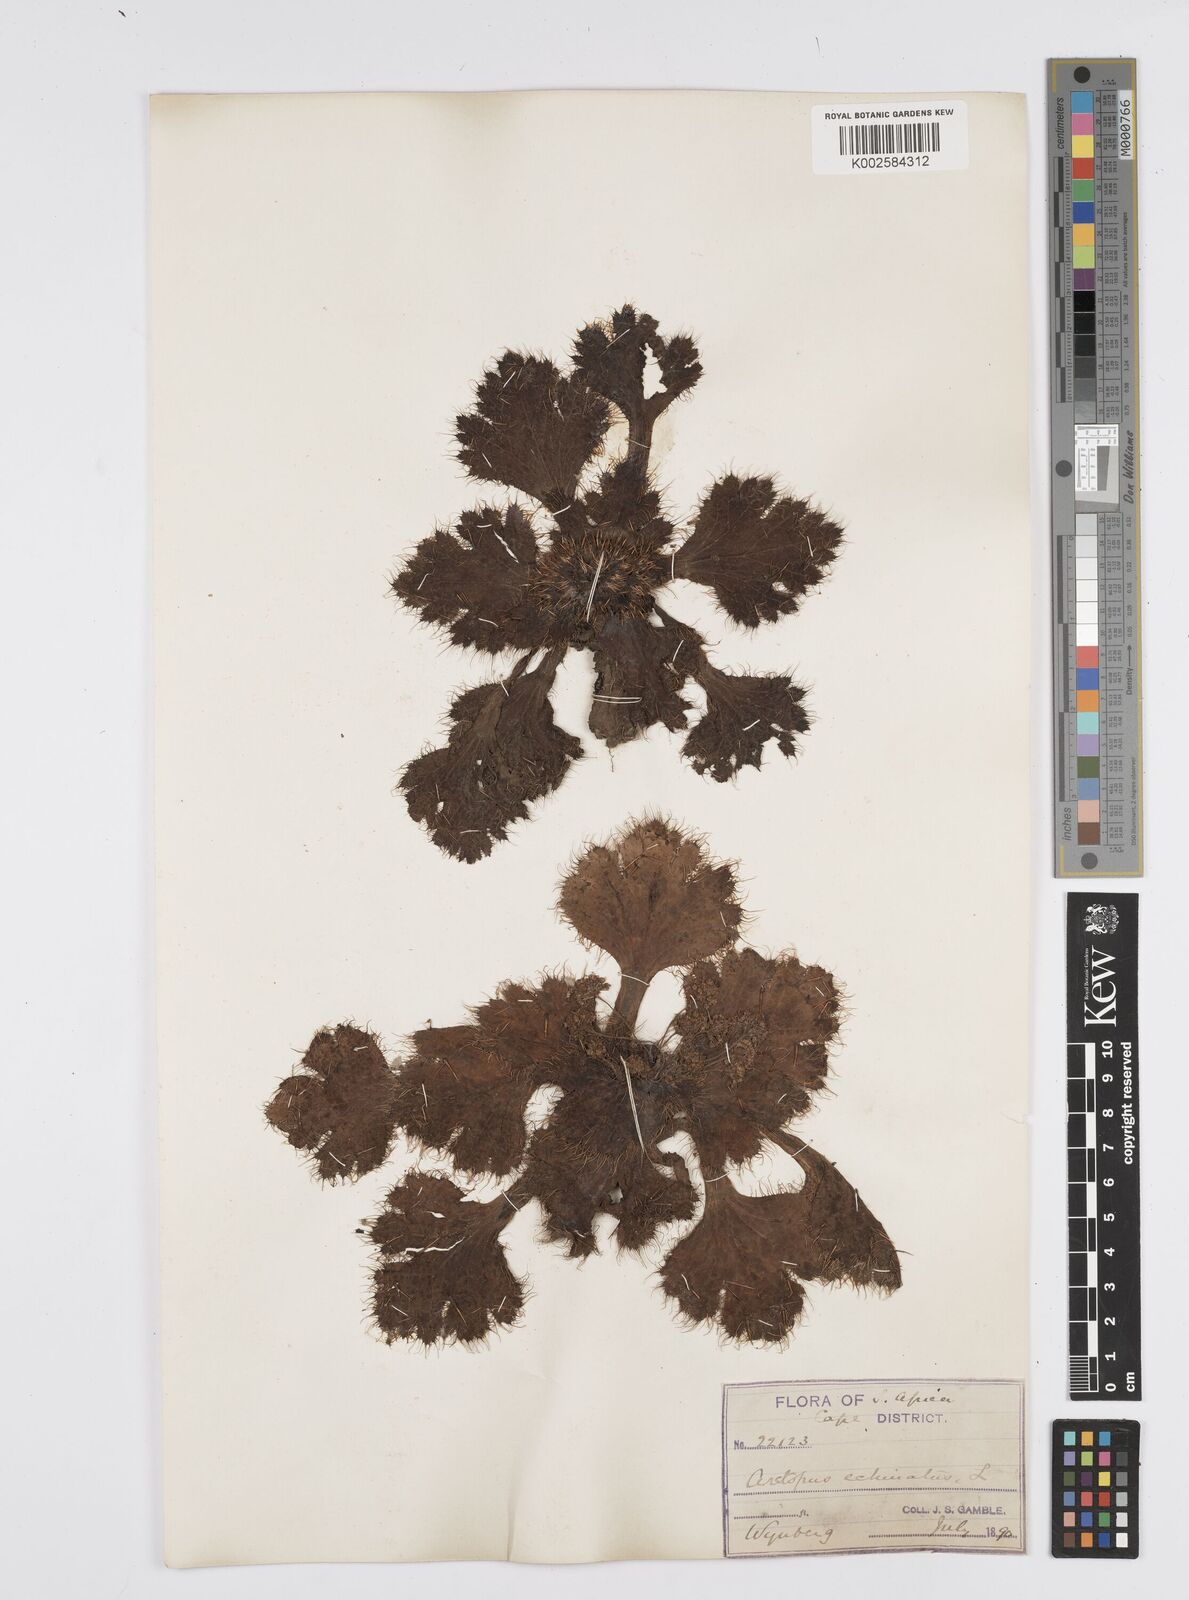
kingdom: Plantae
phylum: Tracheophyta
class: Magnoliopsida
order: Apiales
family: Apiaceae
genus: Arctopus
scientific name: Arctopus echinatus
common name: Platdoring
